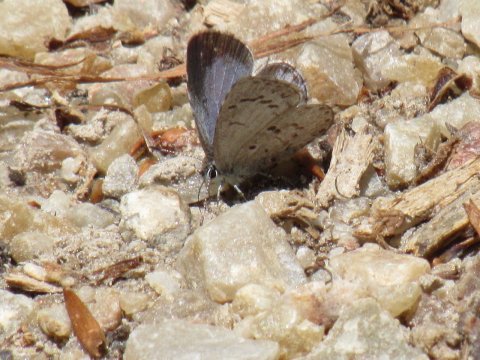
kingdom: Animalia
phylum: Arthropoda
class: Insecta
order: Lepidoptera
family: Lycaenidae
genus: Celastrina
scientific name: Celastrina lucia
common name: Northern Spring Azure
